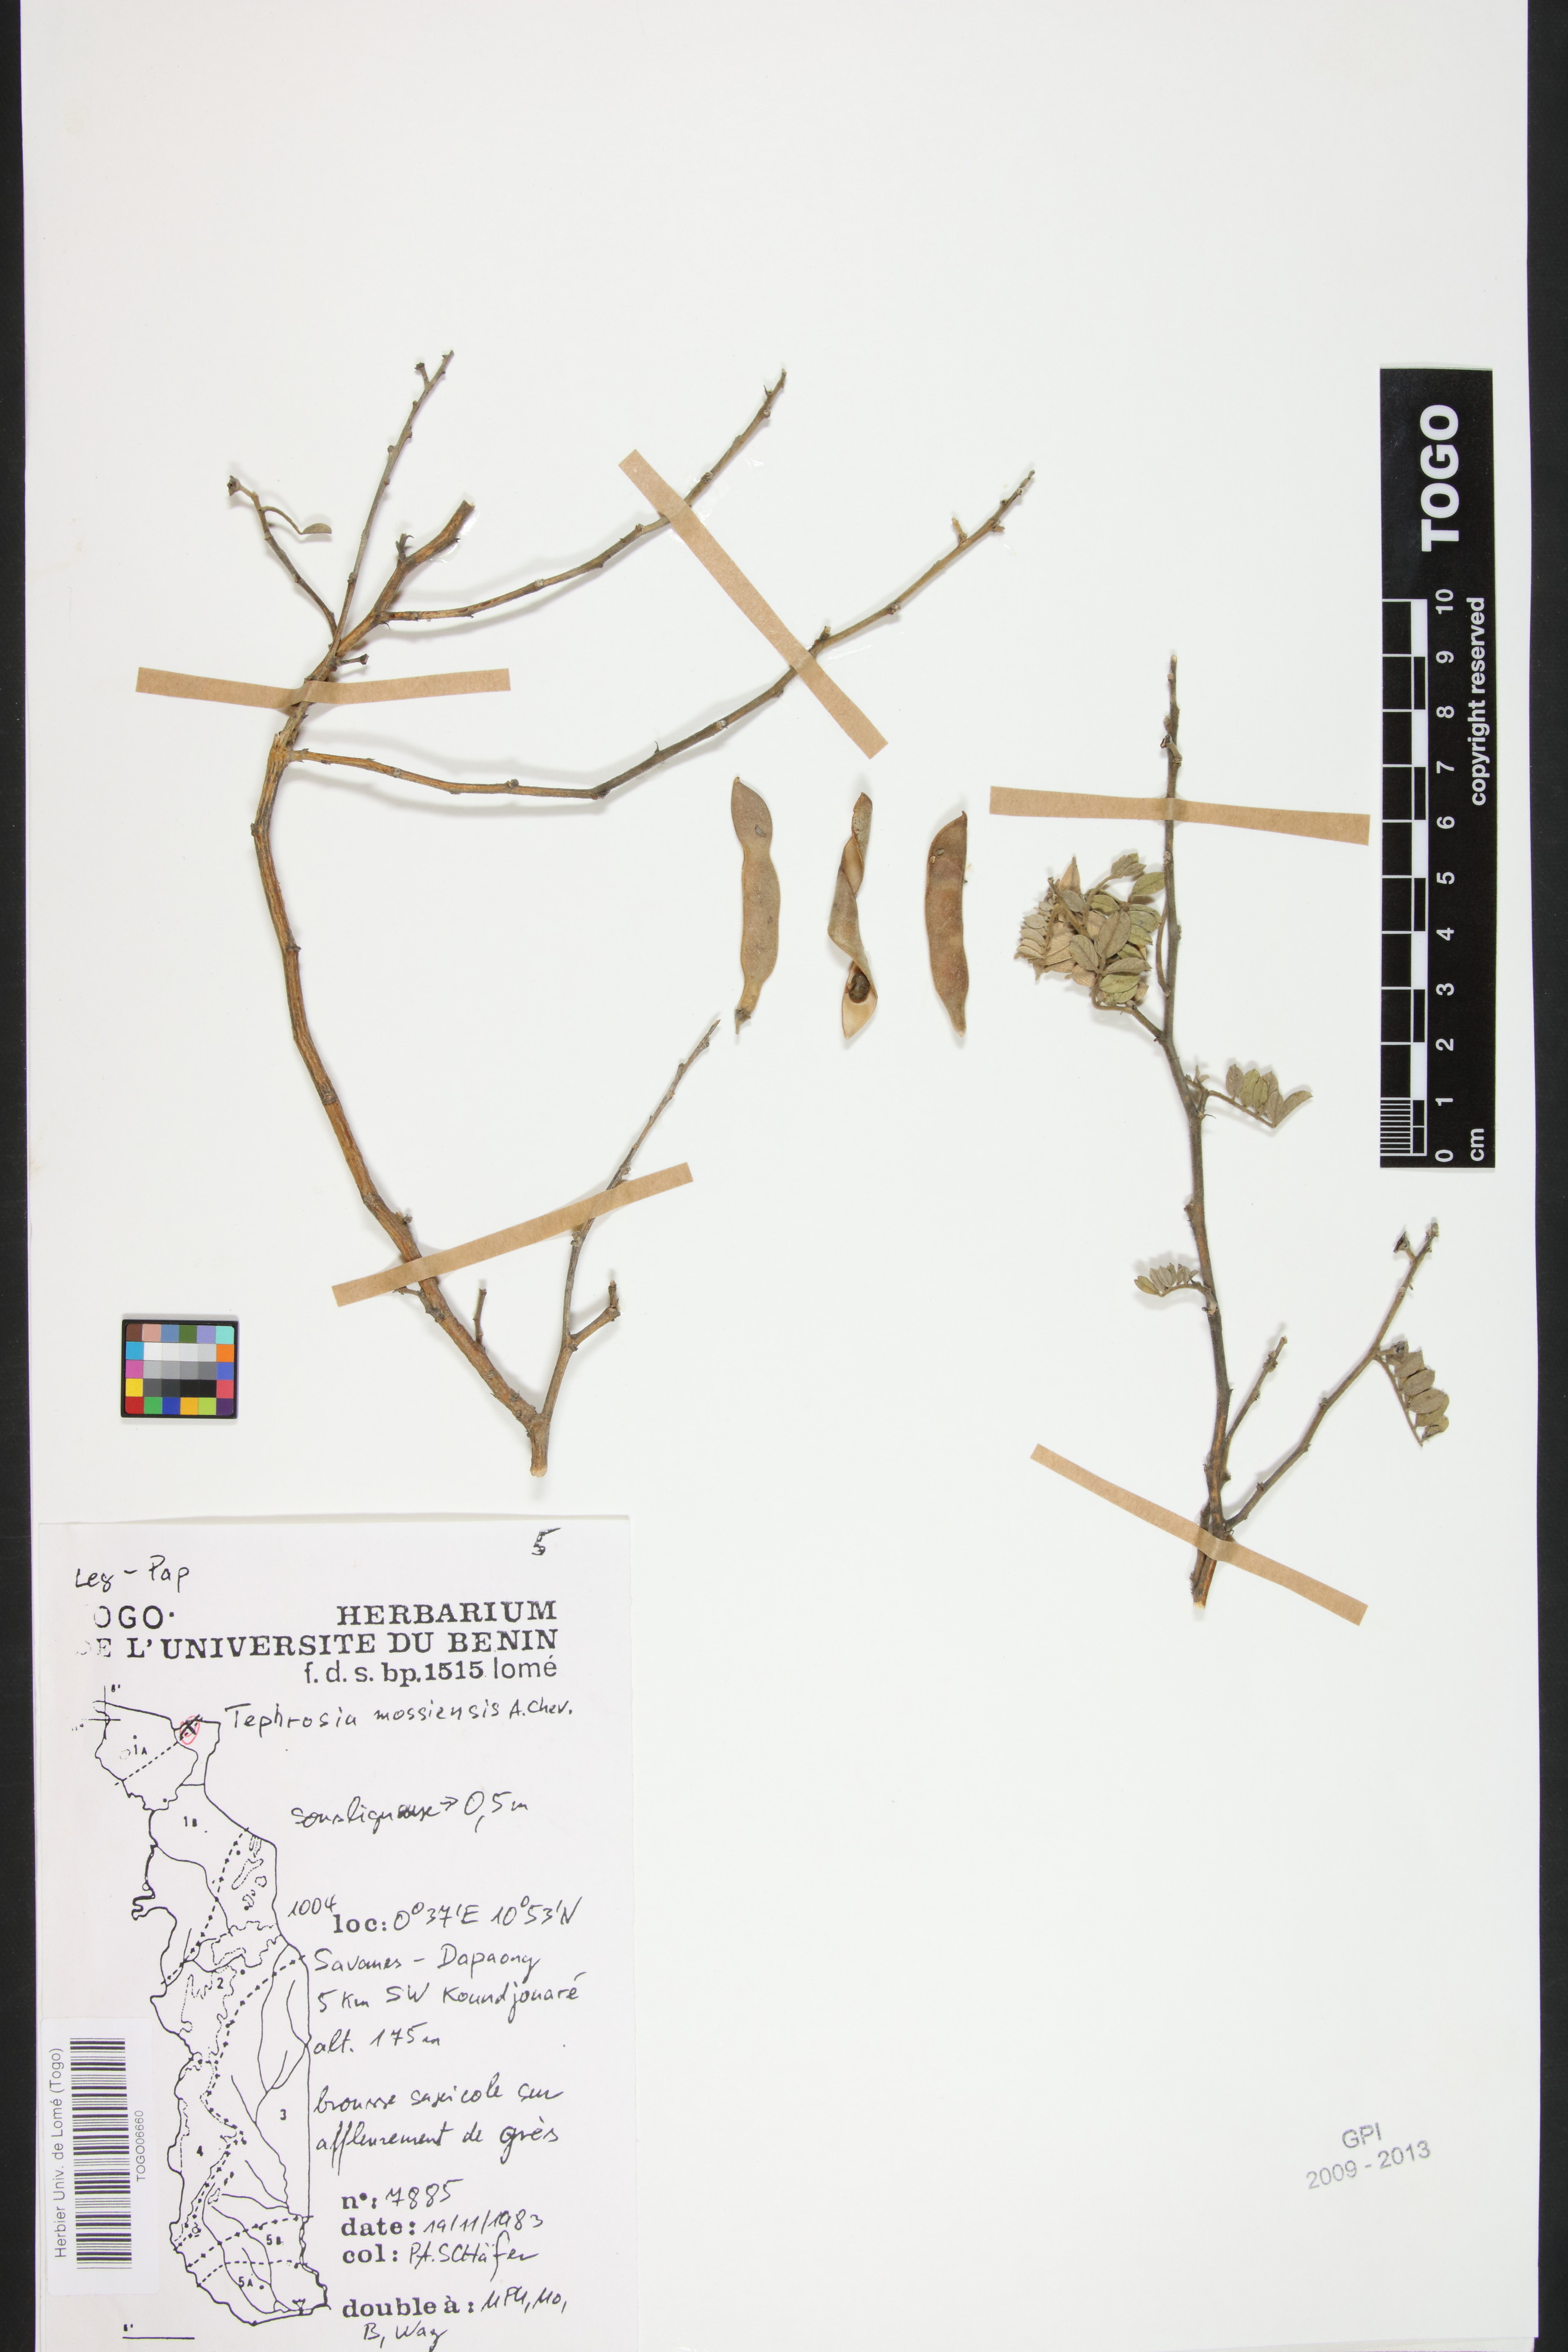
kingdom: Plantae
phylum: Tracheophyta
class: Magnoliopsida
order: Fabales
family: Fabaceae
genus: Tephrosia
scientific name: Tephrosia mossiensis
